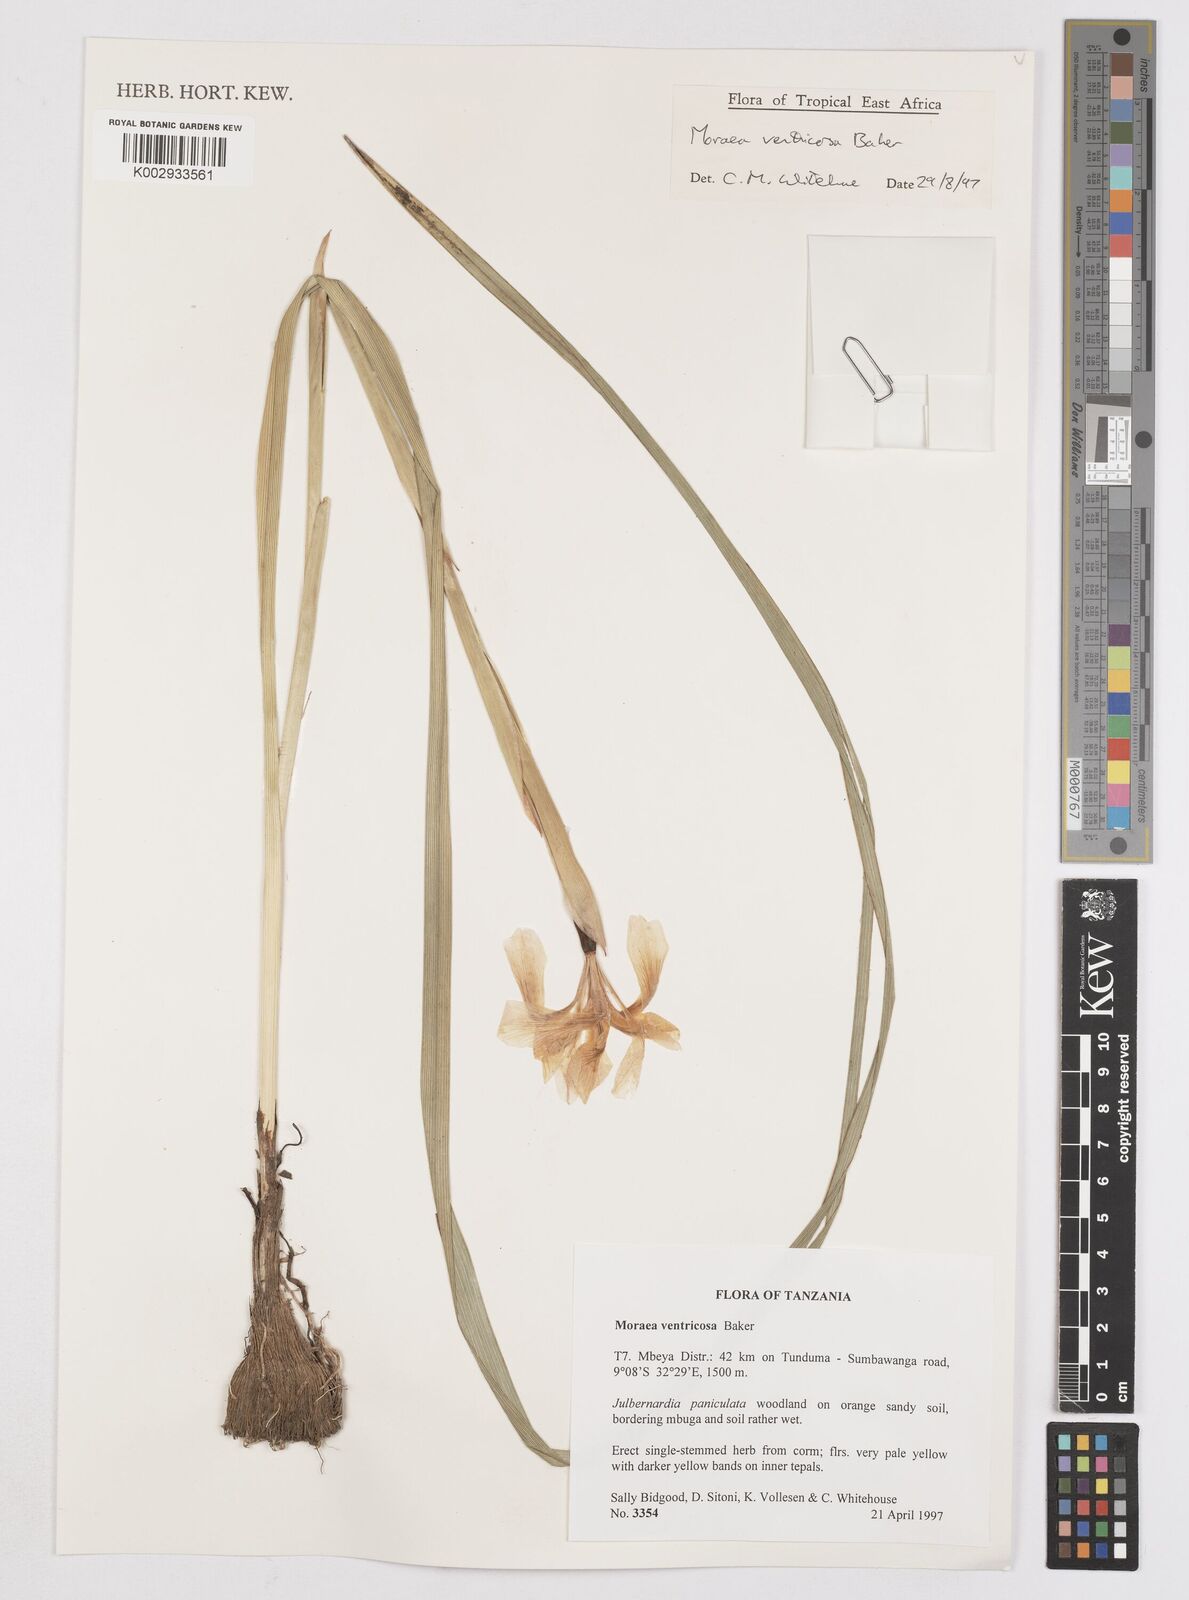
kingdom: Plantae
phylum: Tracheophyta
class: Liliopsida
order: Asparagales
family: Iridaceae
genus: Moraea
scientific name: Moraea ventricosa
